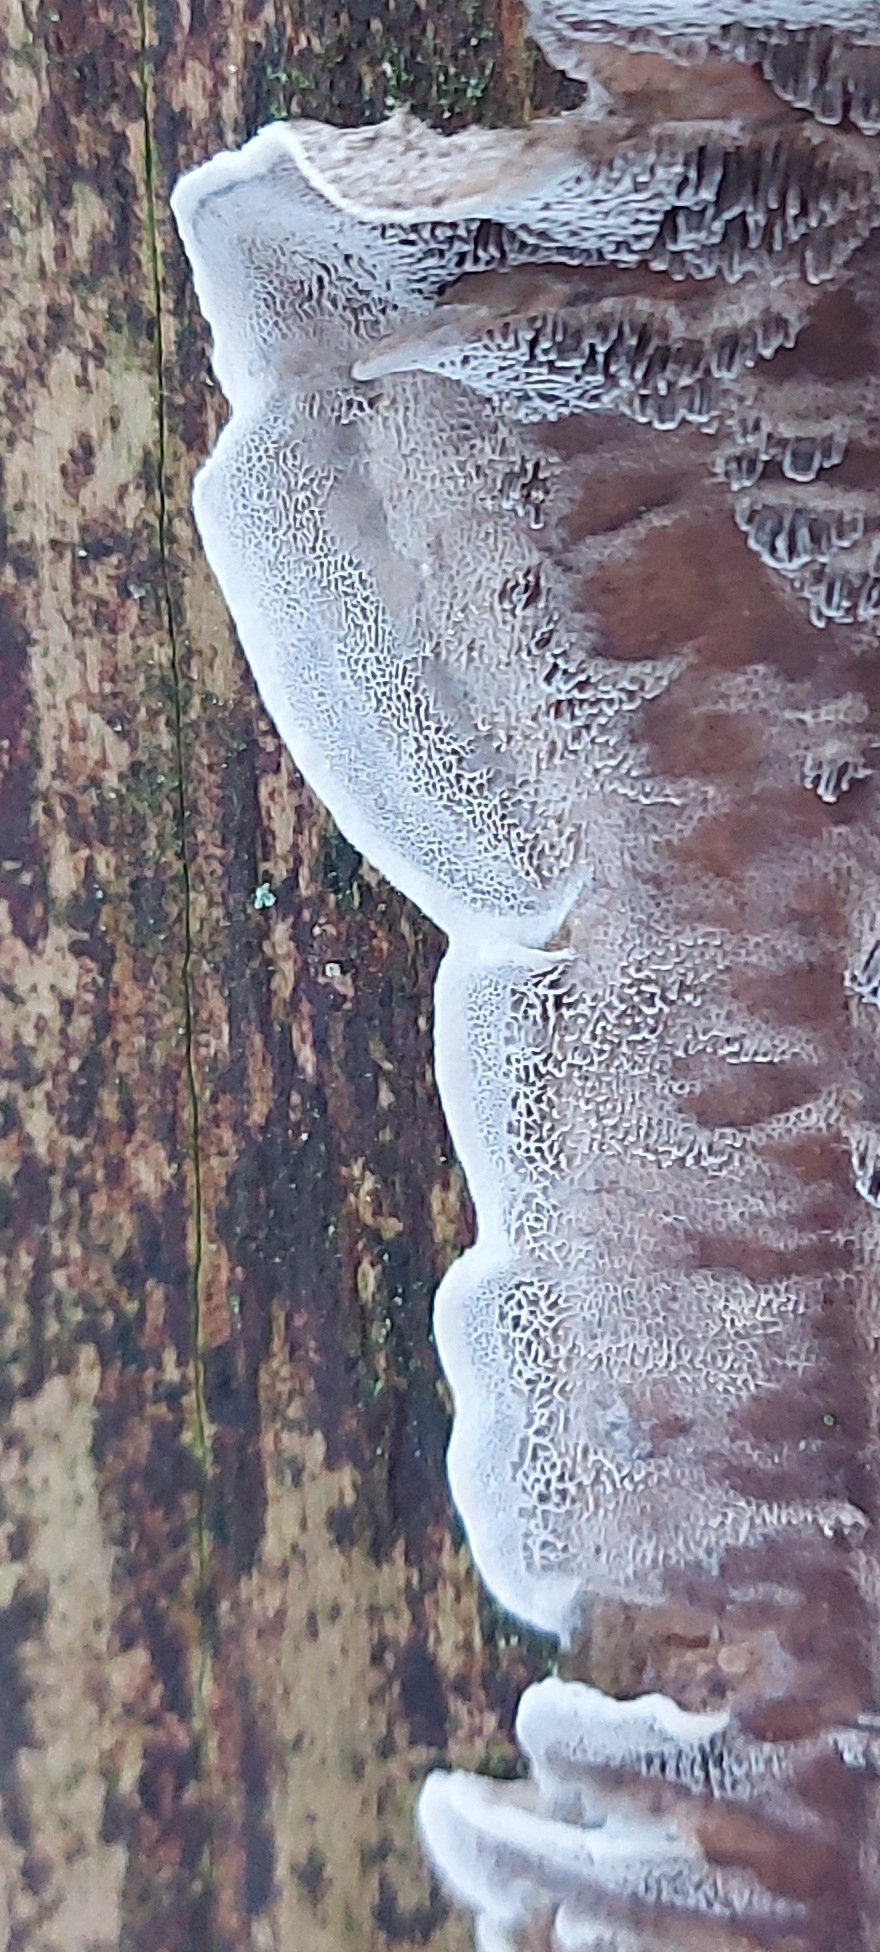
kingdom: Fungi
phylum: Basidiomycota
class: Agaricomycetes
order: Polyporales
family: Phanerochaetaceae
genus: Bjerkandera
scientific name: Bjerkandera adusta
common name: sveden sodporesvamp
